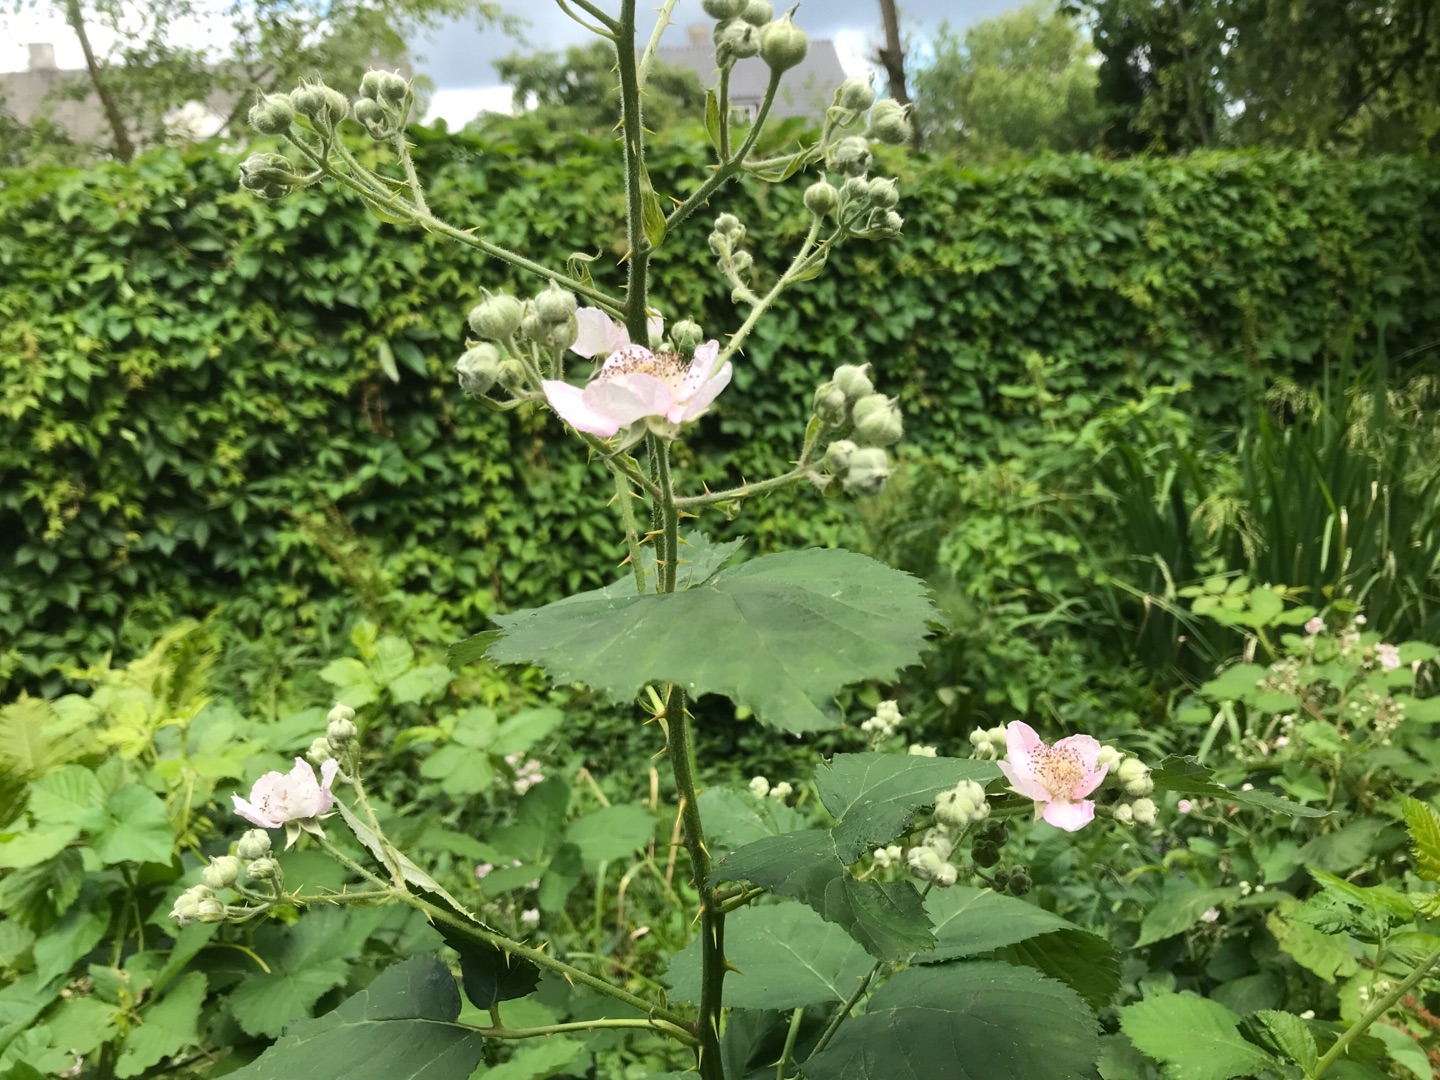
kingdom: Plantae
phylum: Tracheophyta
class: Magnoliopsida
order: Rosales
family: Rosaceae
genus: Rubus
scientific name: Rubus armeniacus
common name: Armensk brombær
